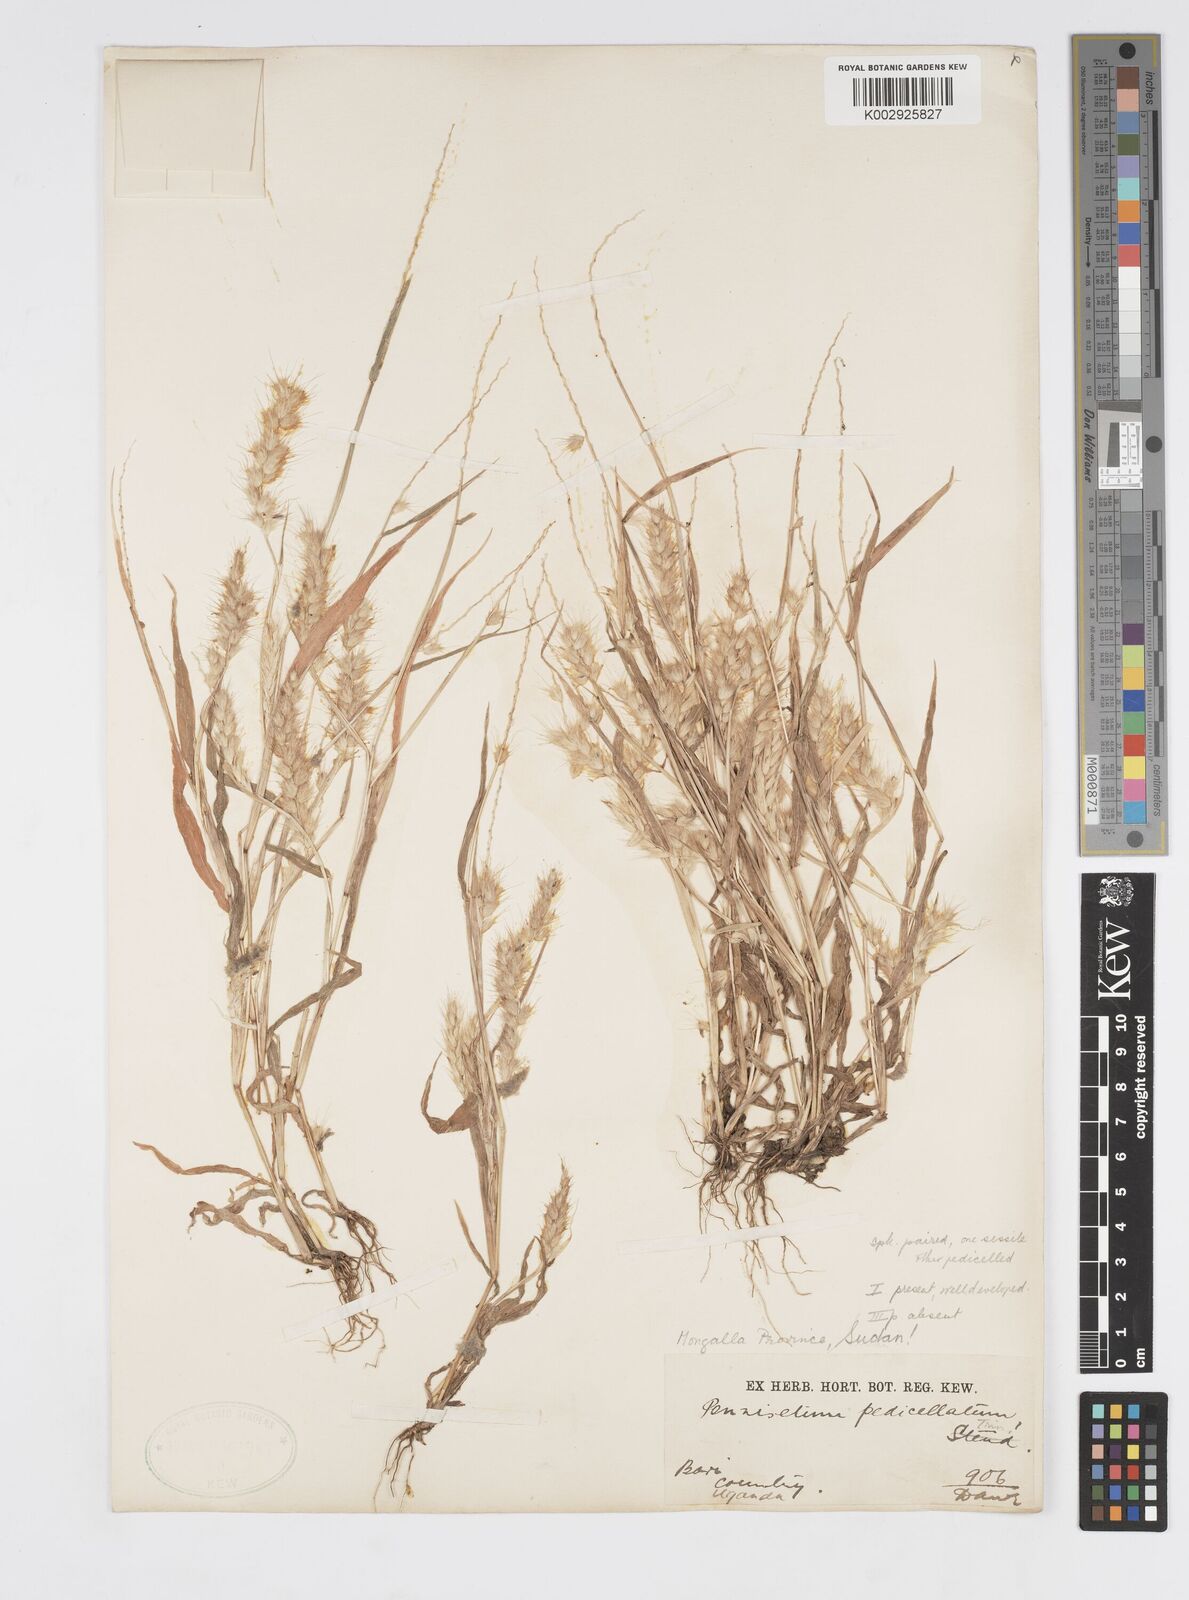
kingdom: Plantae
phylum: Tracheophyta
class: Liliopsida
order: Poales
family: Poaceae
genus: Cenchrus
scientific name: Cenchrus pedicellatus
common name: Hairy fountain grass
